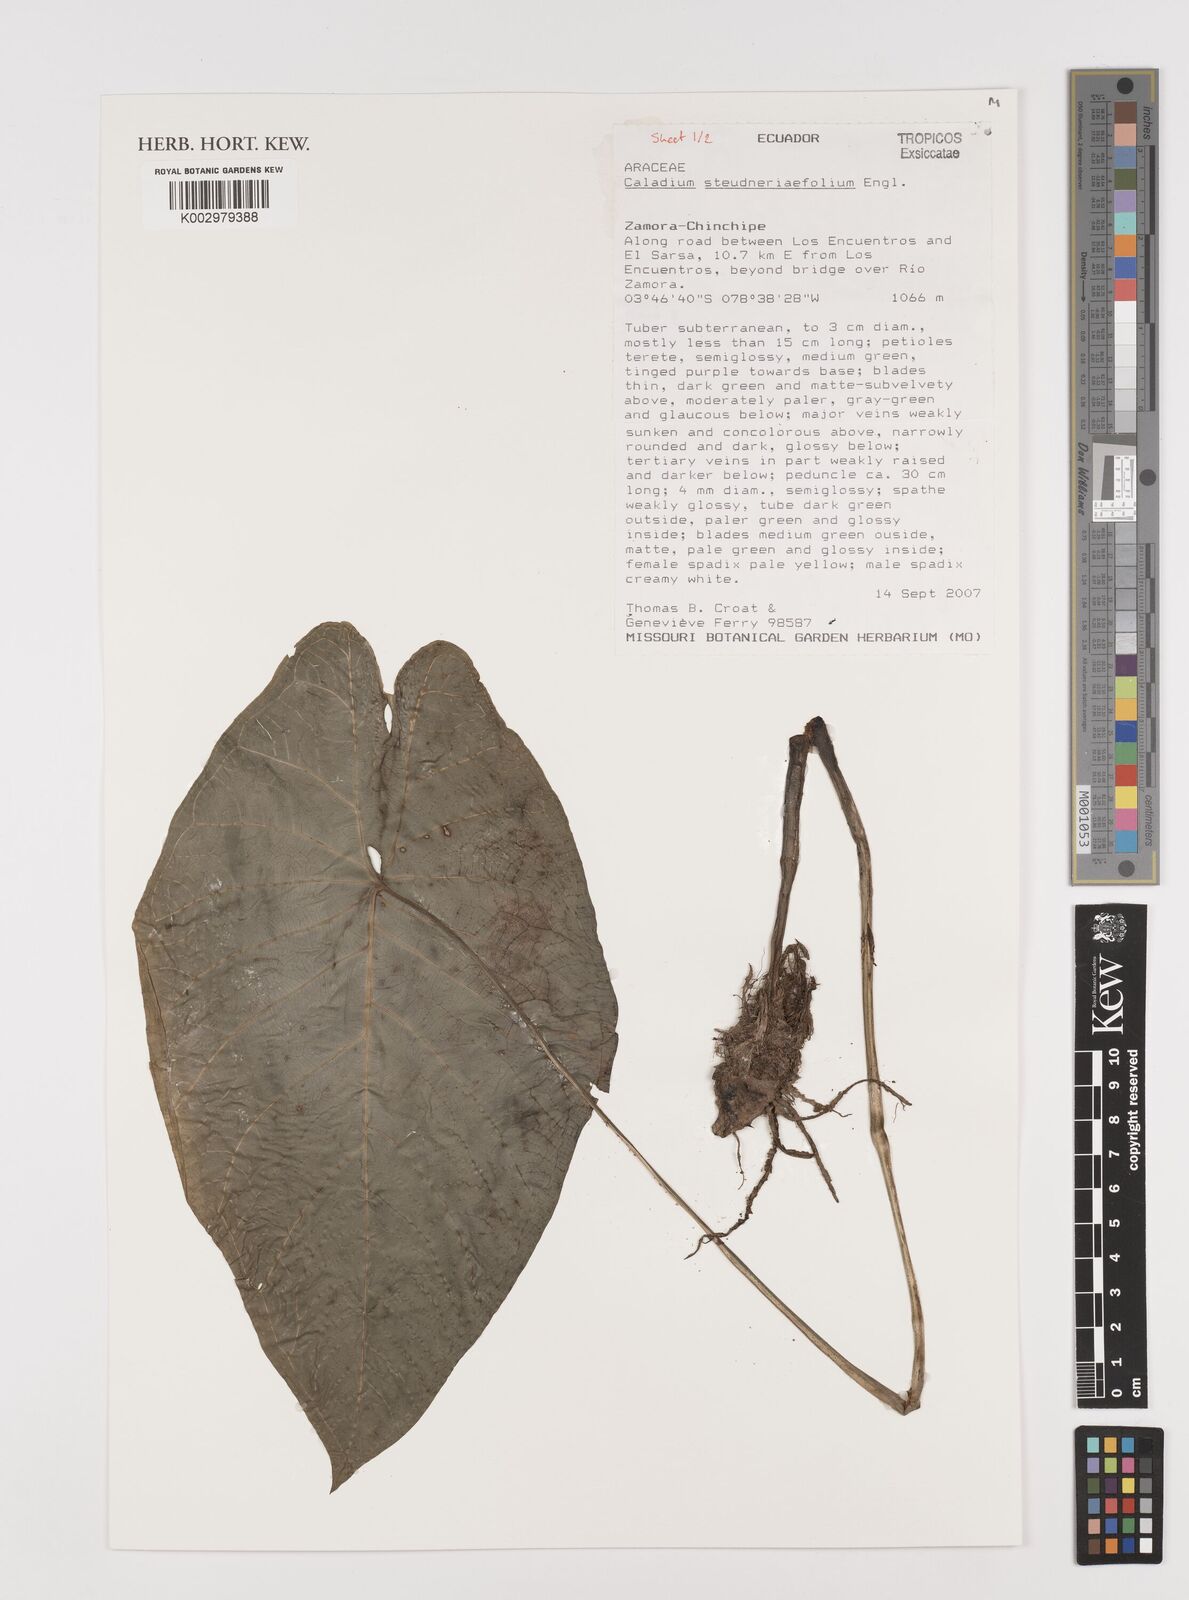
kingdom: Plantae
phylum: Tracheophyta
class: Liliopsida
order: Alismatales
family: Araceae
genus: Caladium
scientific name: Caladium steudnerifolium
